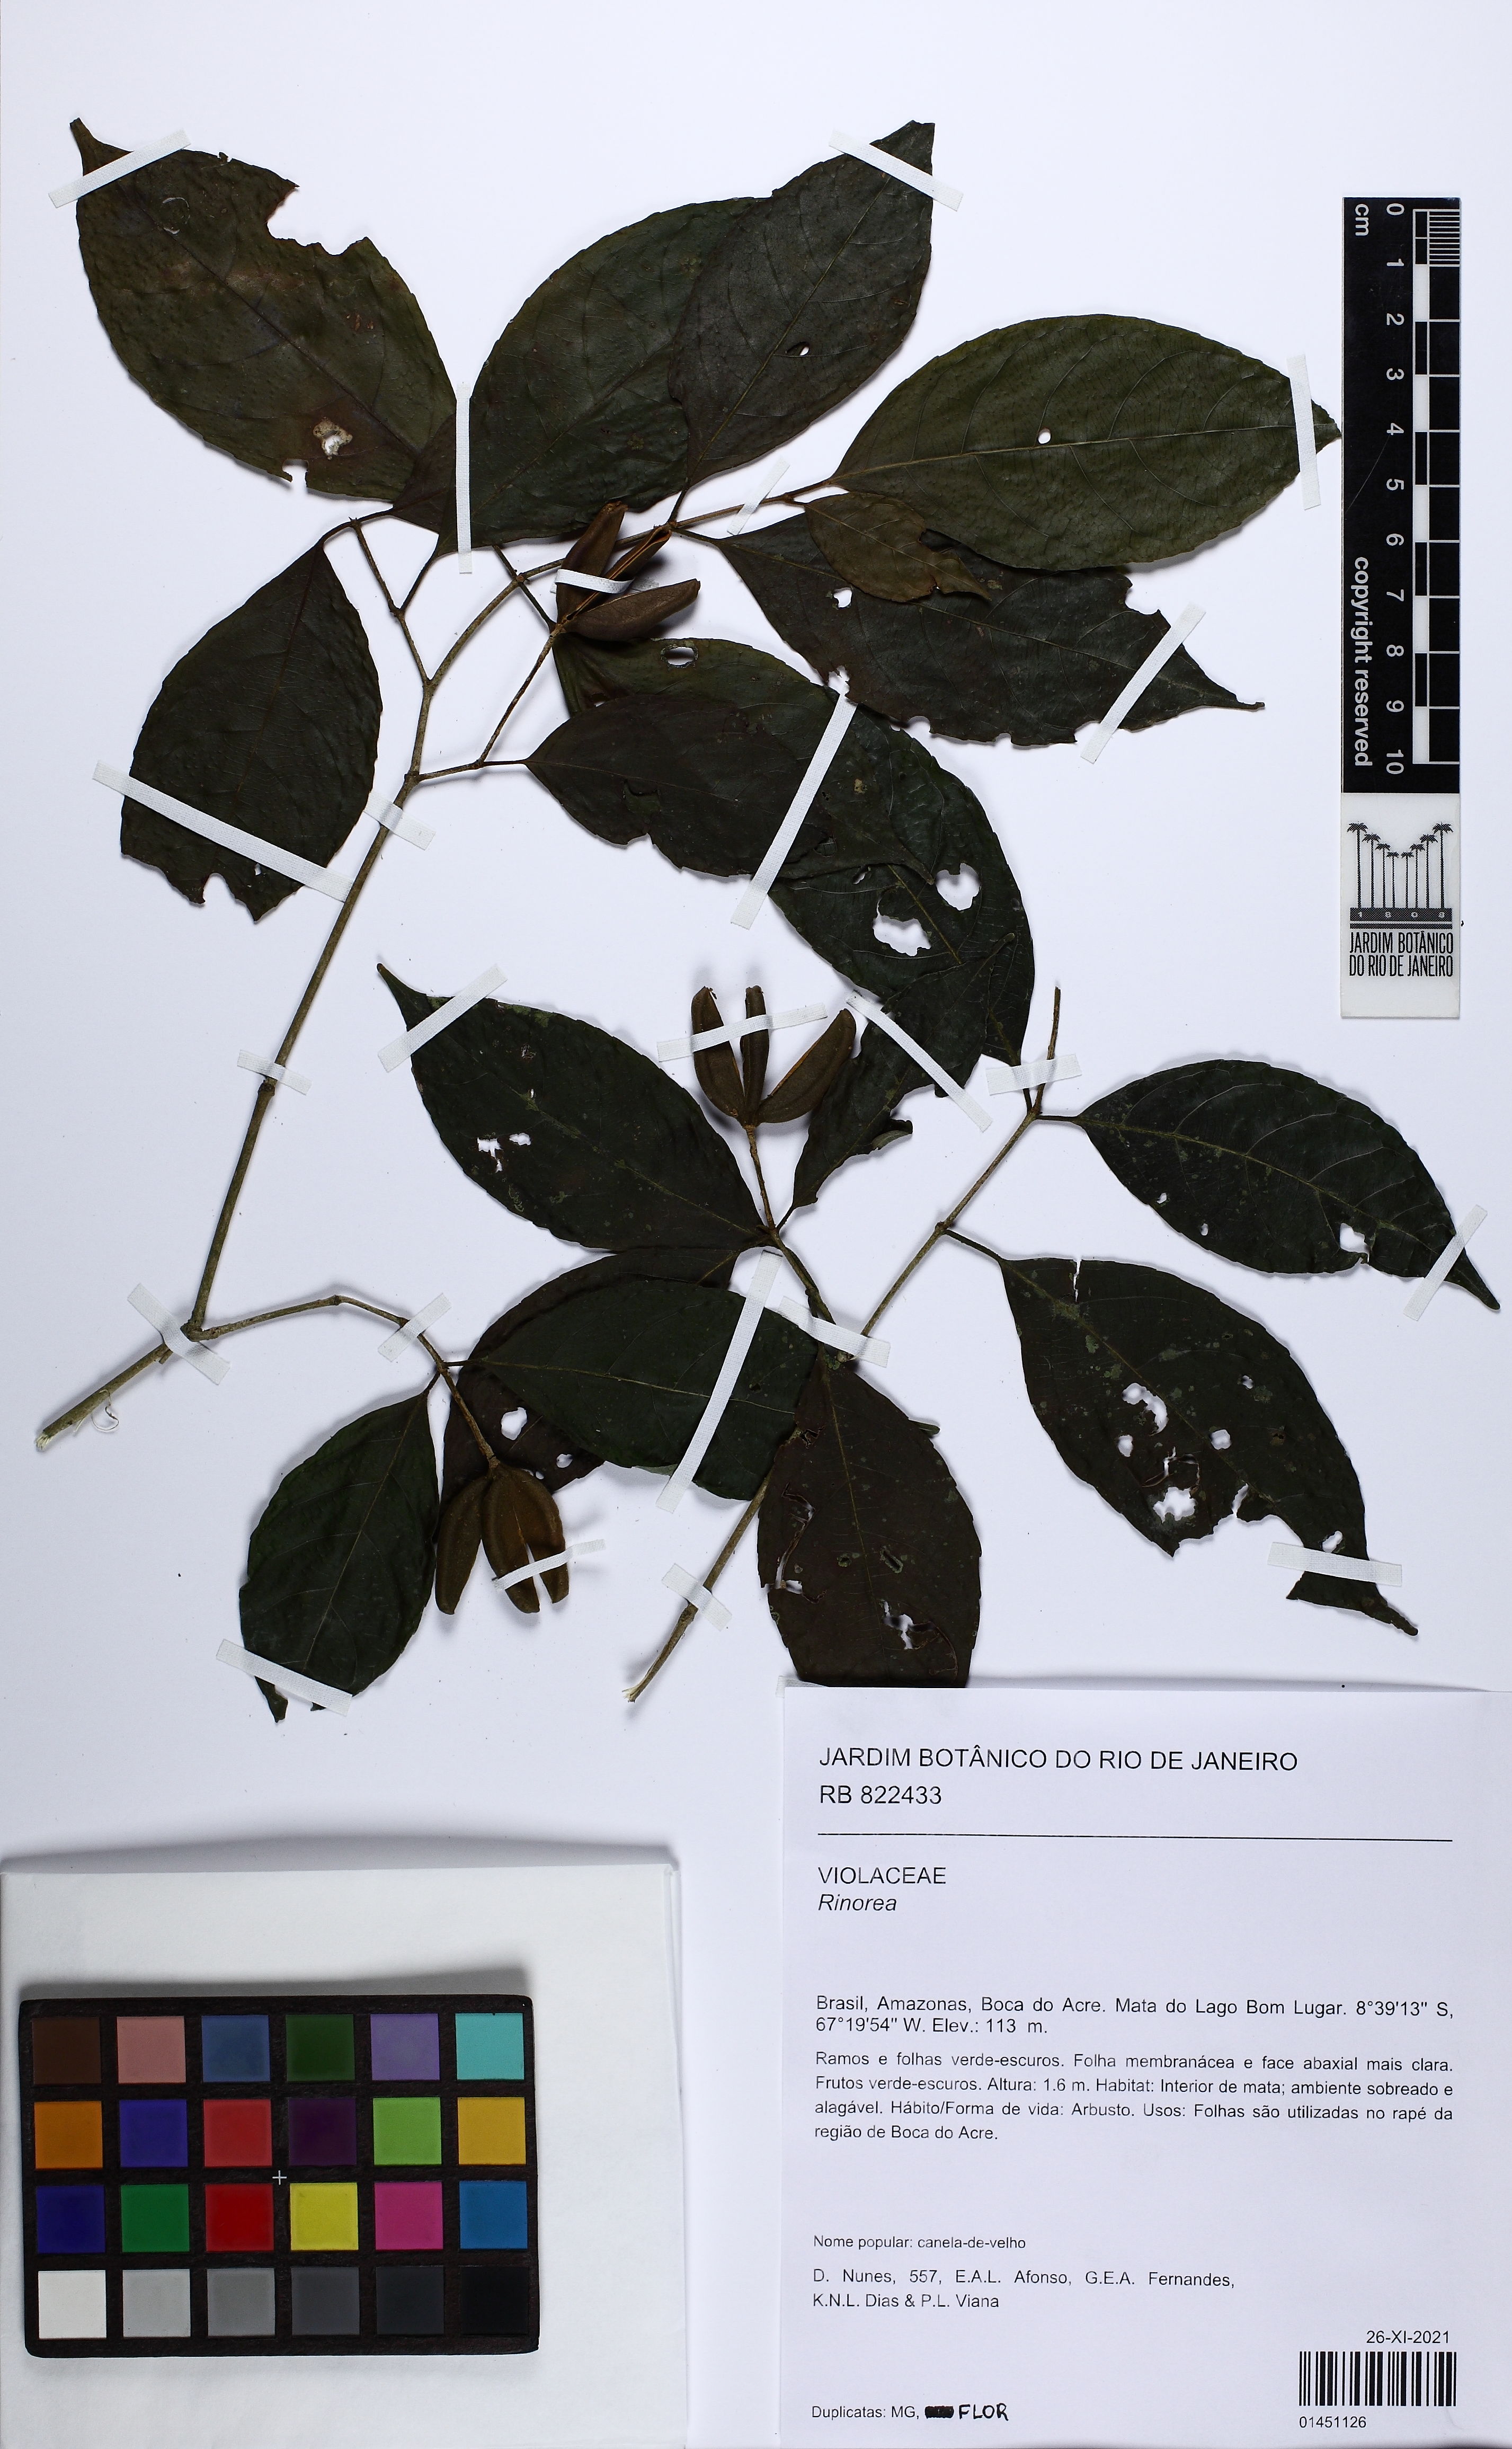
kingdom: Plantae
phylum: Tracheophyta
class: Magnoliopsida
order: Malpighiales
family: Violaceae
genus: Rinorea
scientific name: Rinorea
